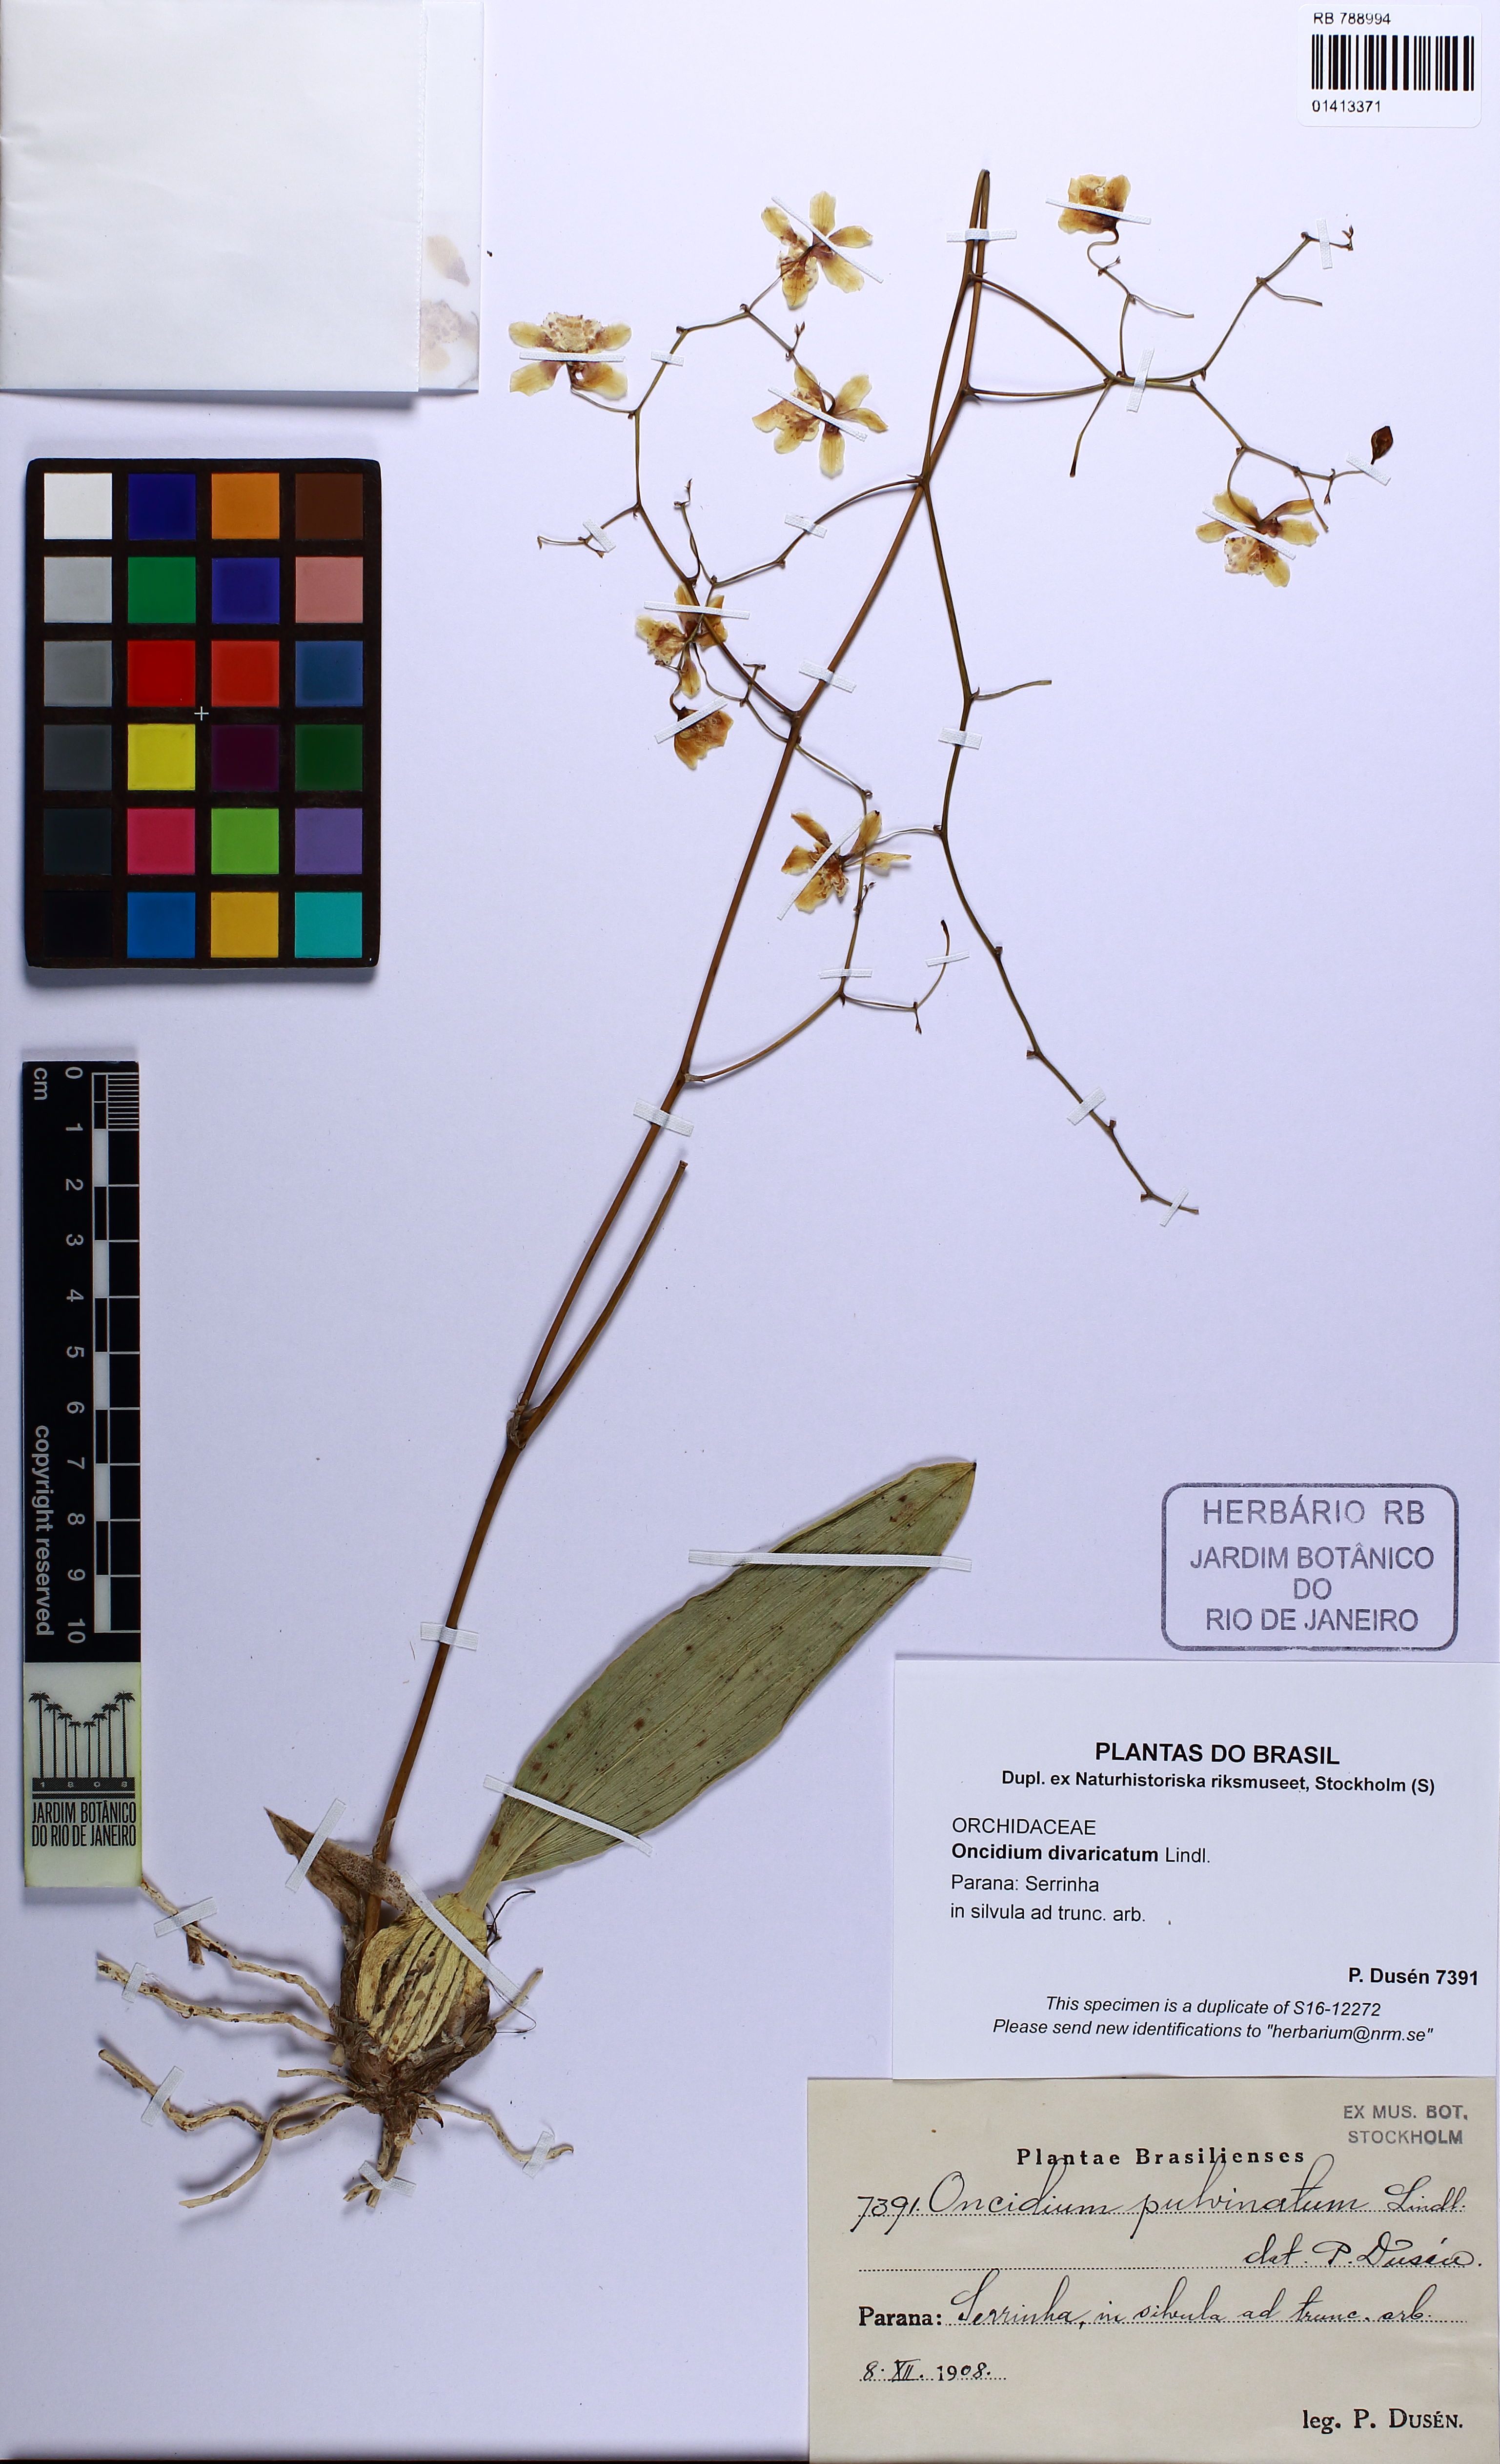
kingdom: Plantae
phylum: Tracheophyta
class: Liliopsida
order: Asparagales
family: Orchidaceae
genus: Grandiphyllum
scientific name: Grandiphyllum divaricatum
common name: Mule-ear orchid
